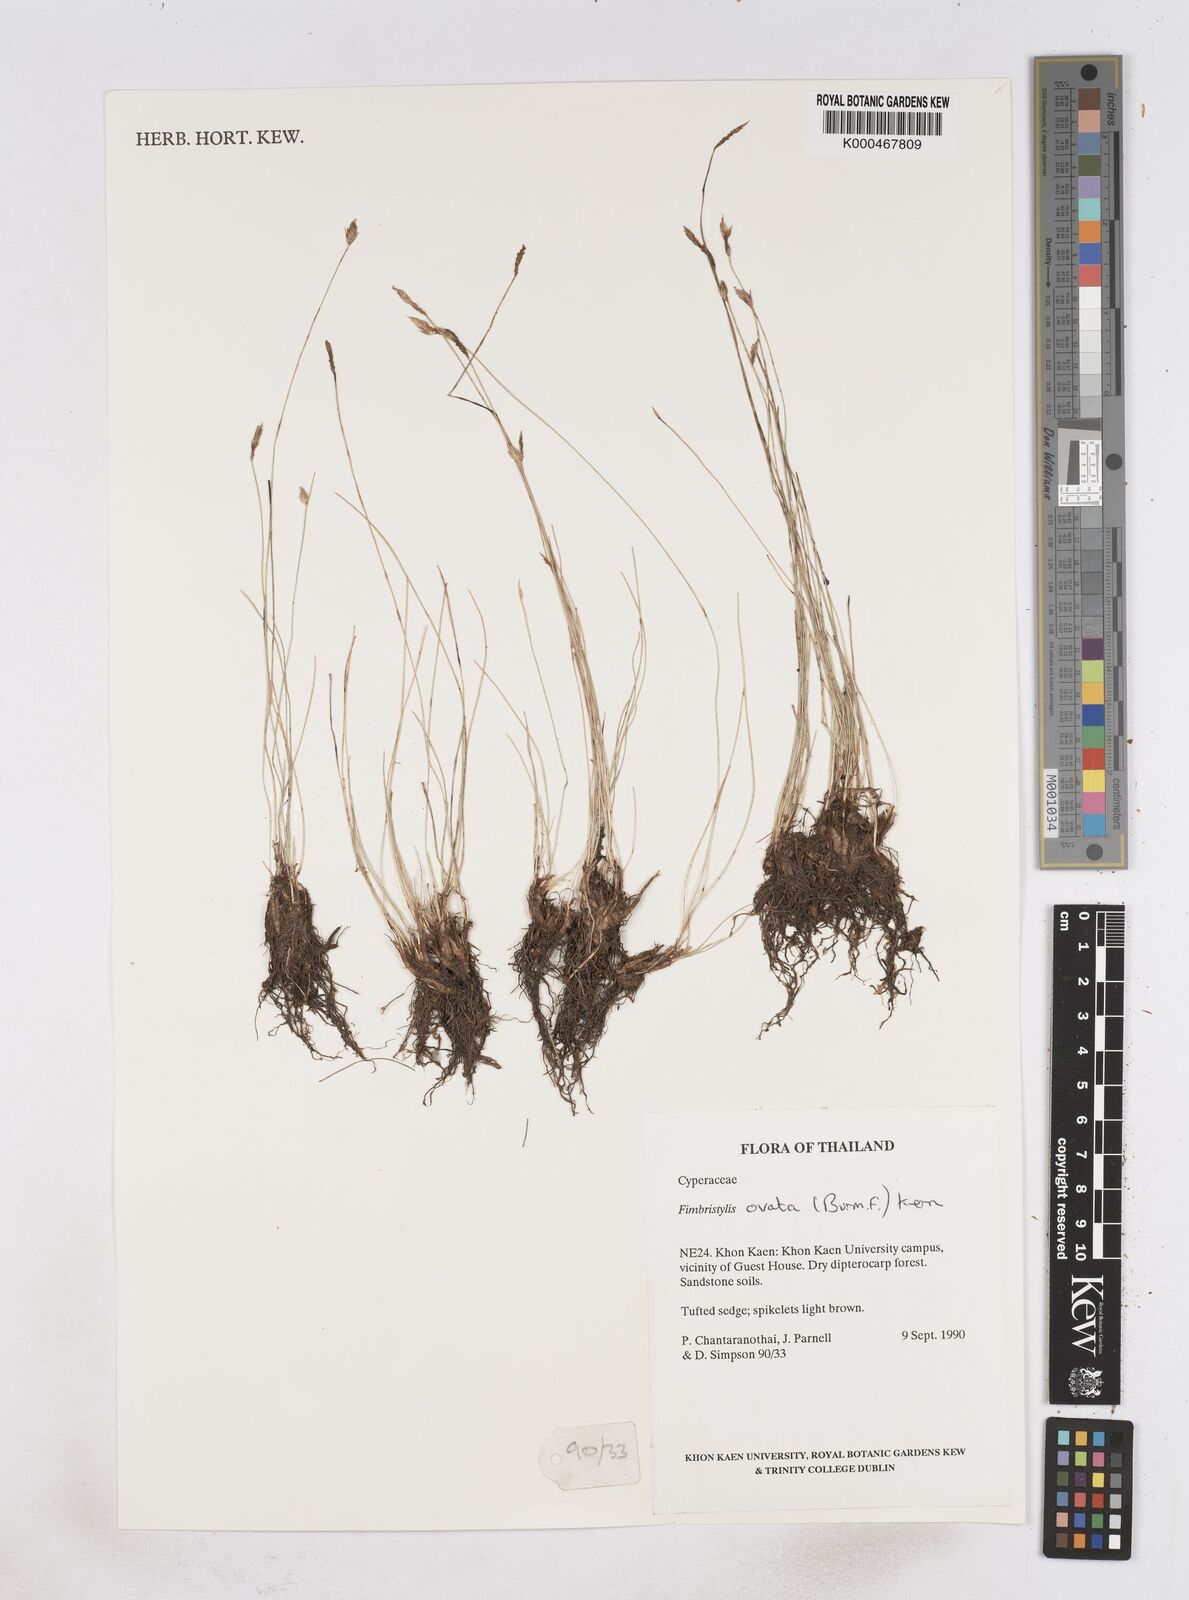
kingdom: Plantae
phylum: Tracheophyta
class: Liliopsida
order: Poales
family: Cyperaceae
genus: Abildgaardia
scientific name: Abildgaardia ovata
